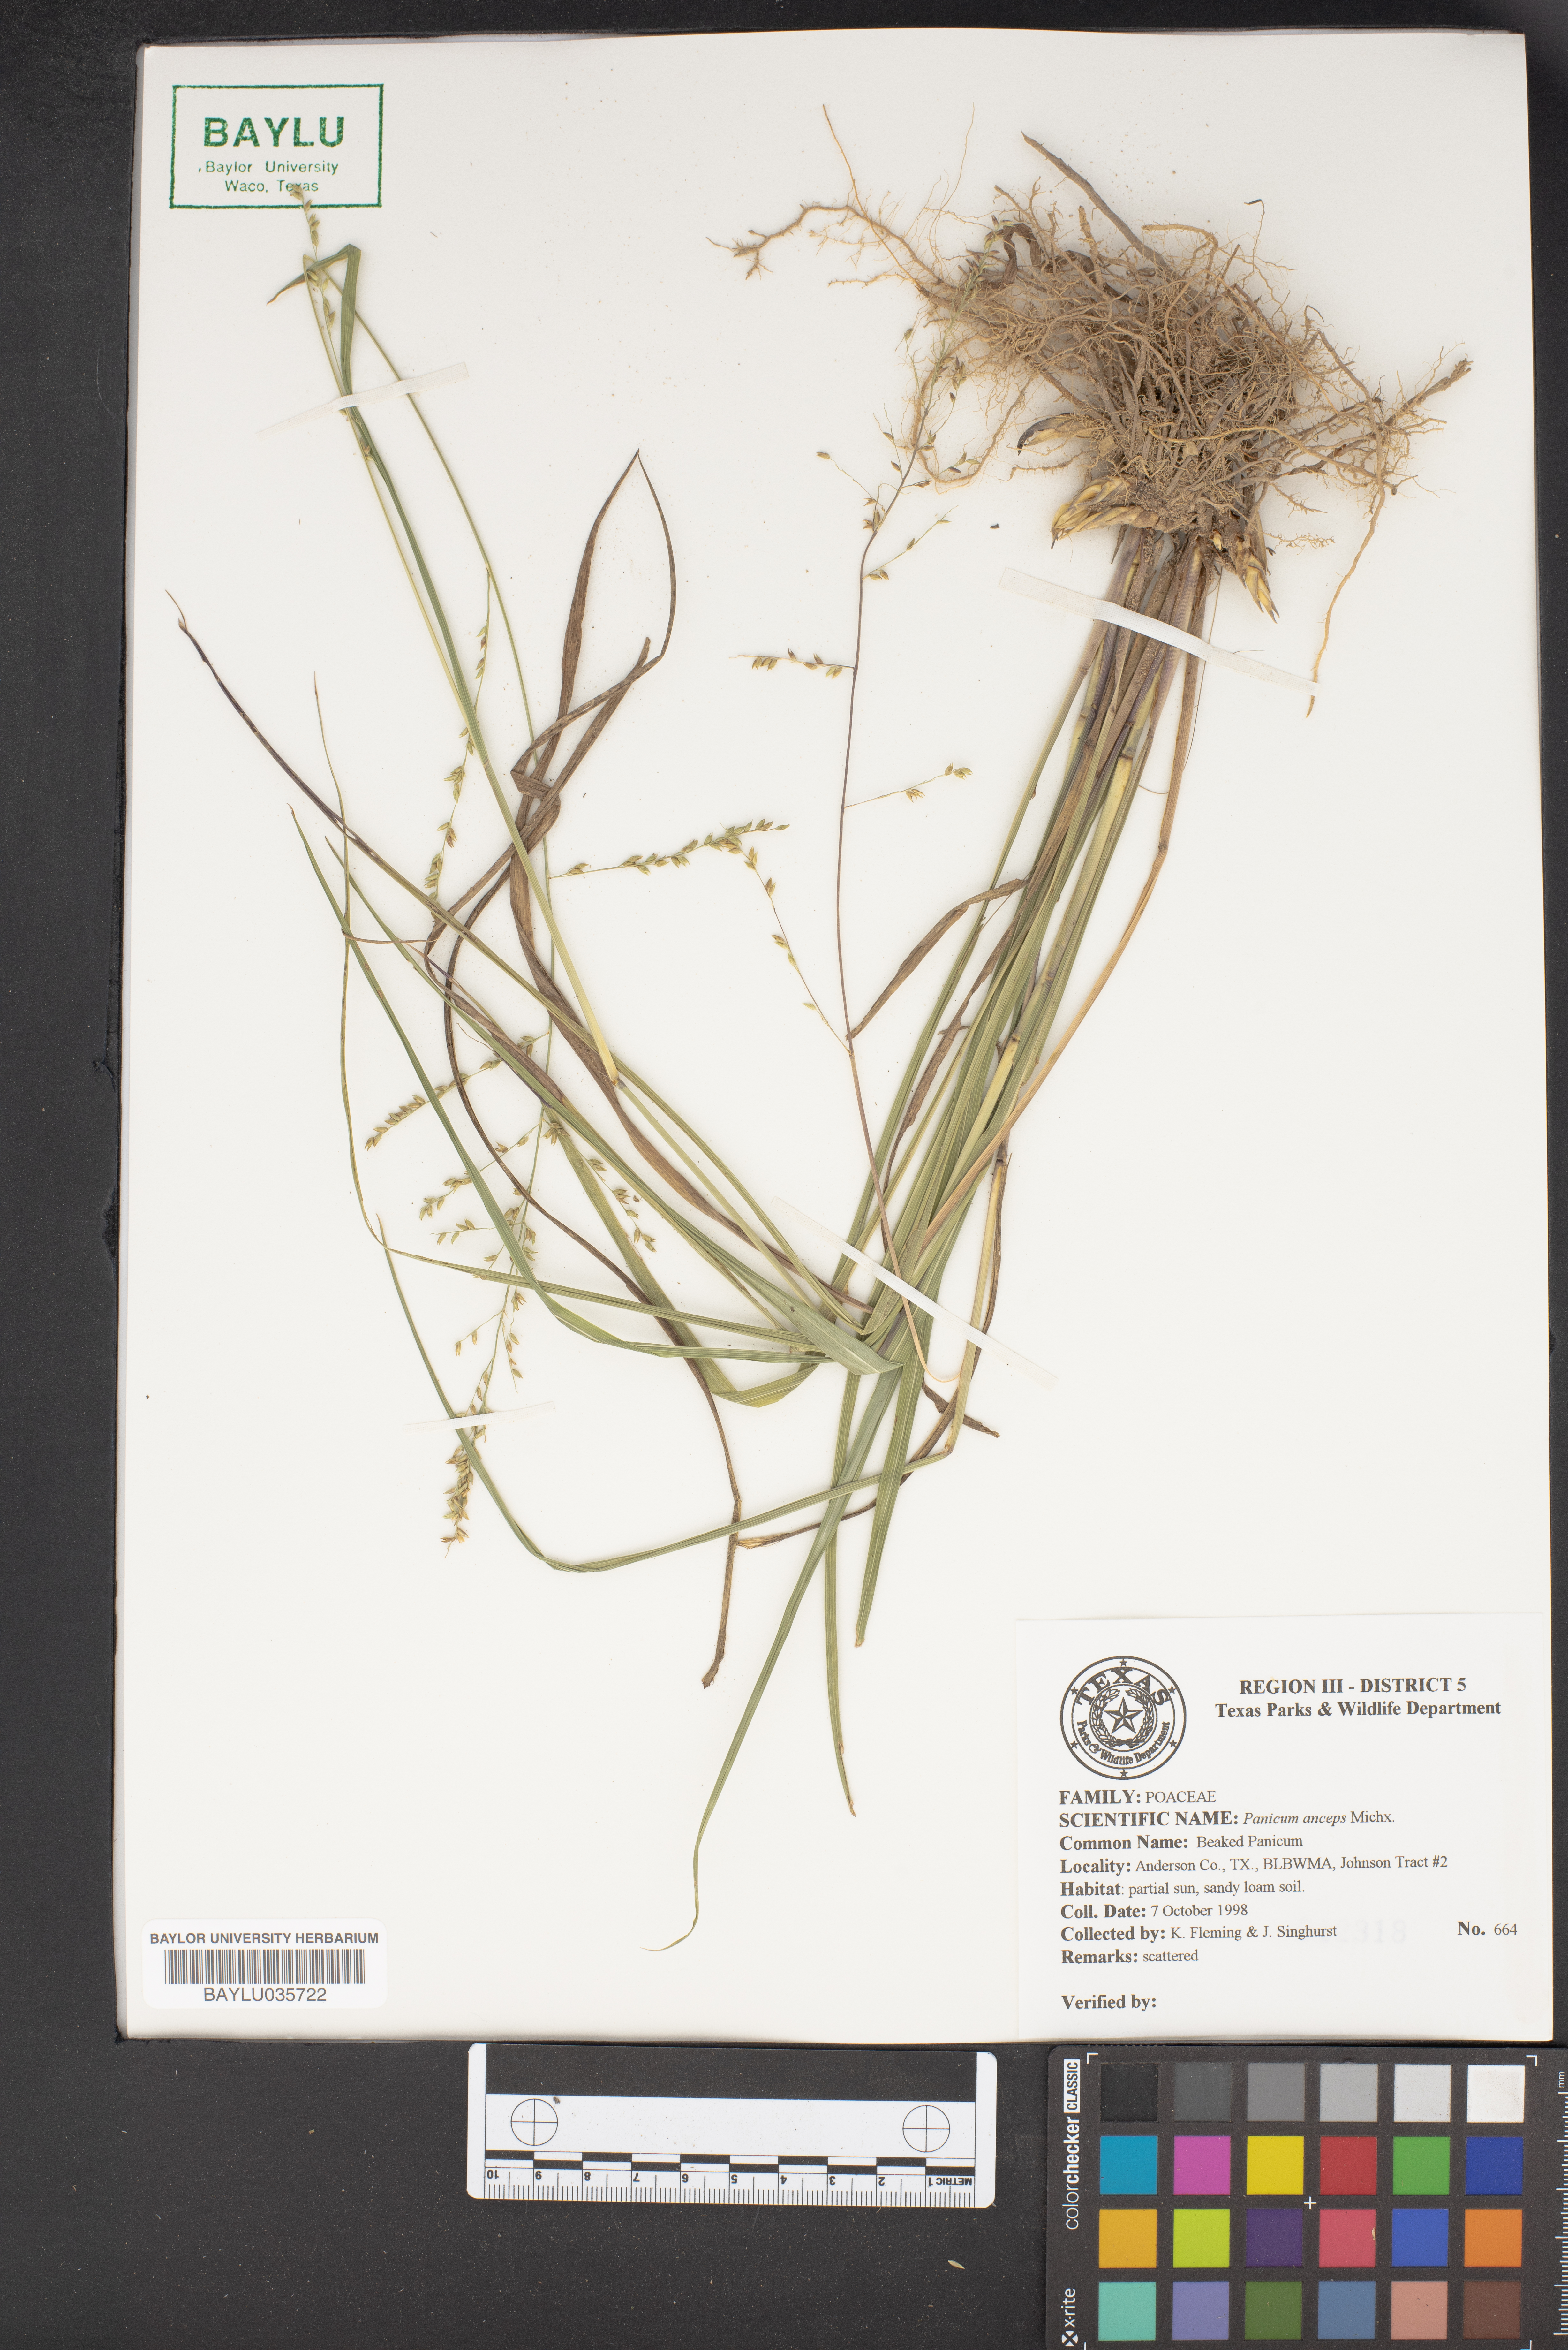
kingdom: Plantae
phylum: Tracheophyta
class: Liliopsida
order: Poales
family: Poaceae
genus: Coleataenia
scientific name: Coleataenia anceps
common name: Beaked panic grass
